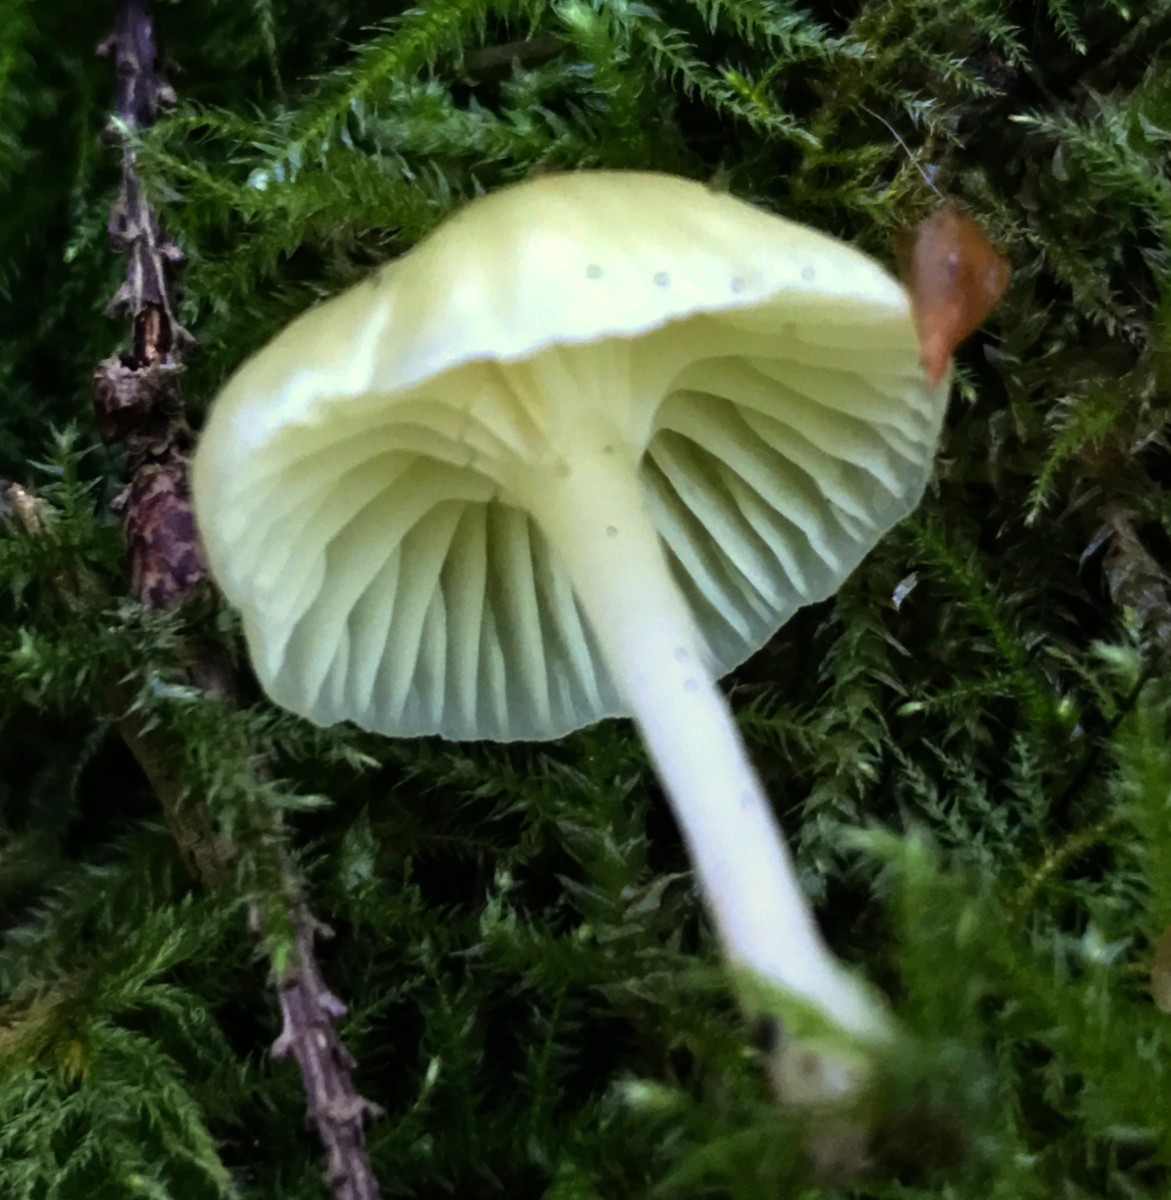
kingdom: Fungi
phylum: Basidiomycota
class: Agaricomycetes
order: Agaricales
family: Hygrophoraceae
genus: Chrysomphalina
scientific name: Chrysomphalina grossula
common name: stød-gyldenblad
